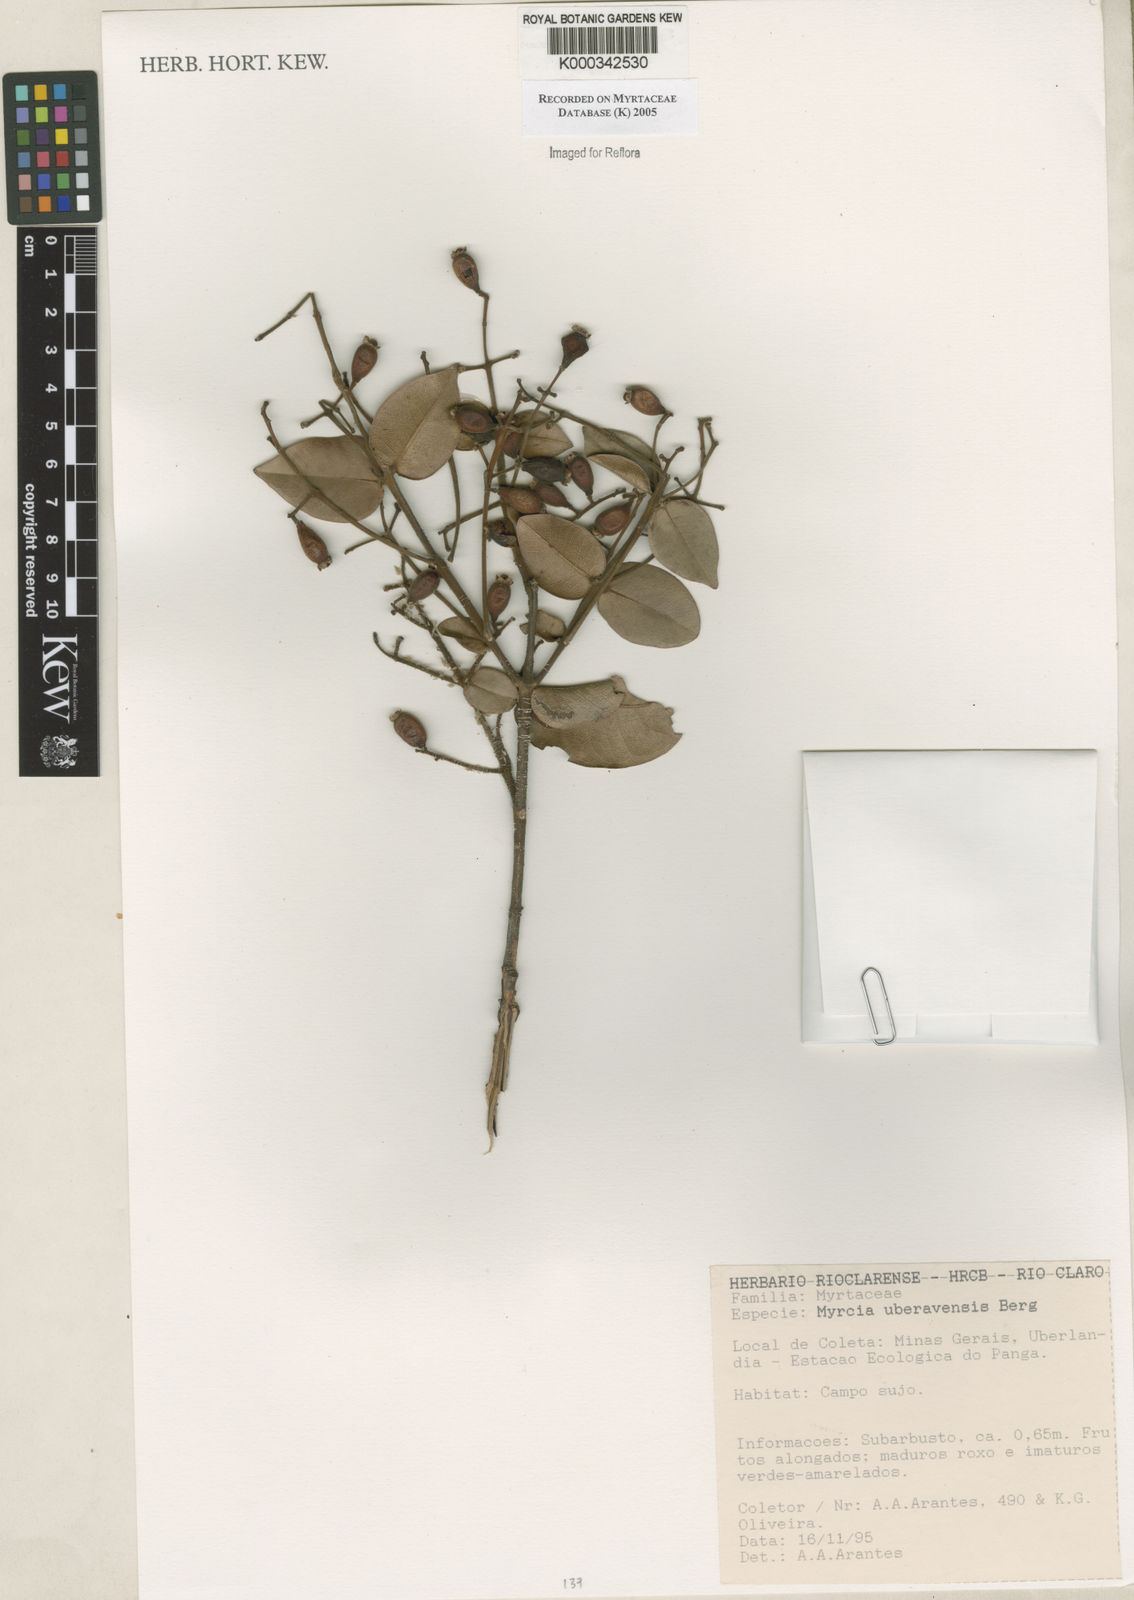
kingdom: Plantae
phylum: Tracheophyta
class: Magnoliopsida
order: Myrtales
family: Myrtaceae
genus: Myrcia
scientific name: Myrcia uberavensis
